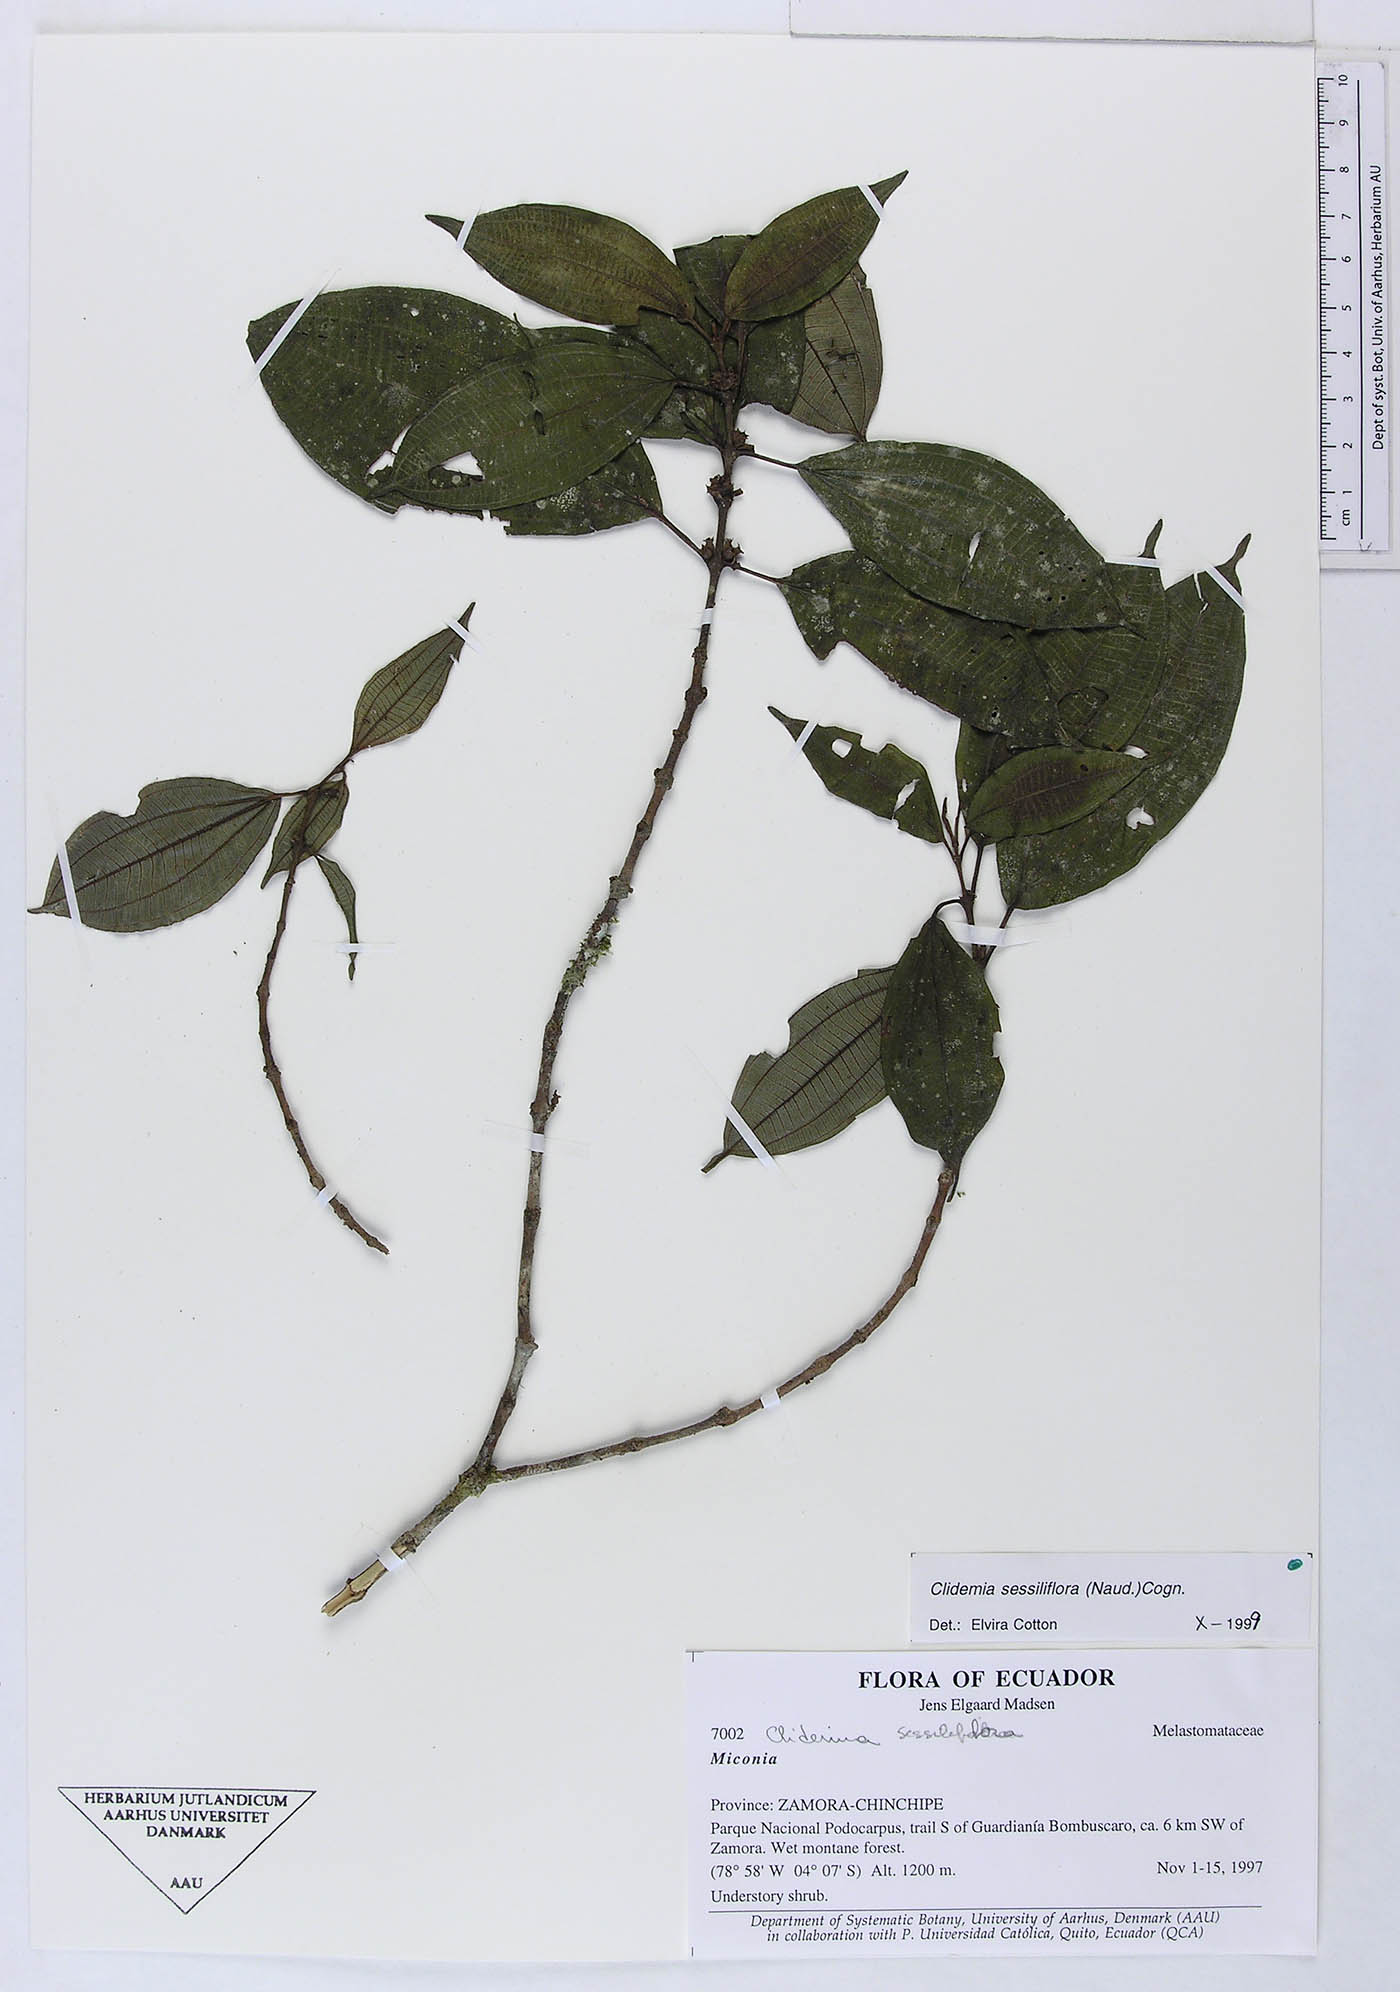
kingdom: Plantae
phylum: Tracheophyta
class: Magnoliopsida
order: Myrtales
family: Melastomataceae
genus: Miconia
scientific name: Miconia sessiliflora
